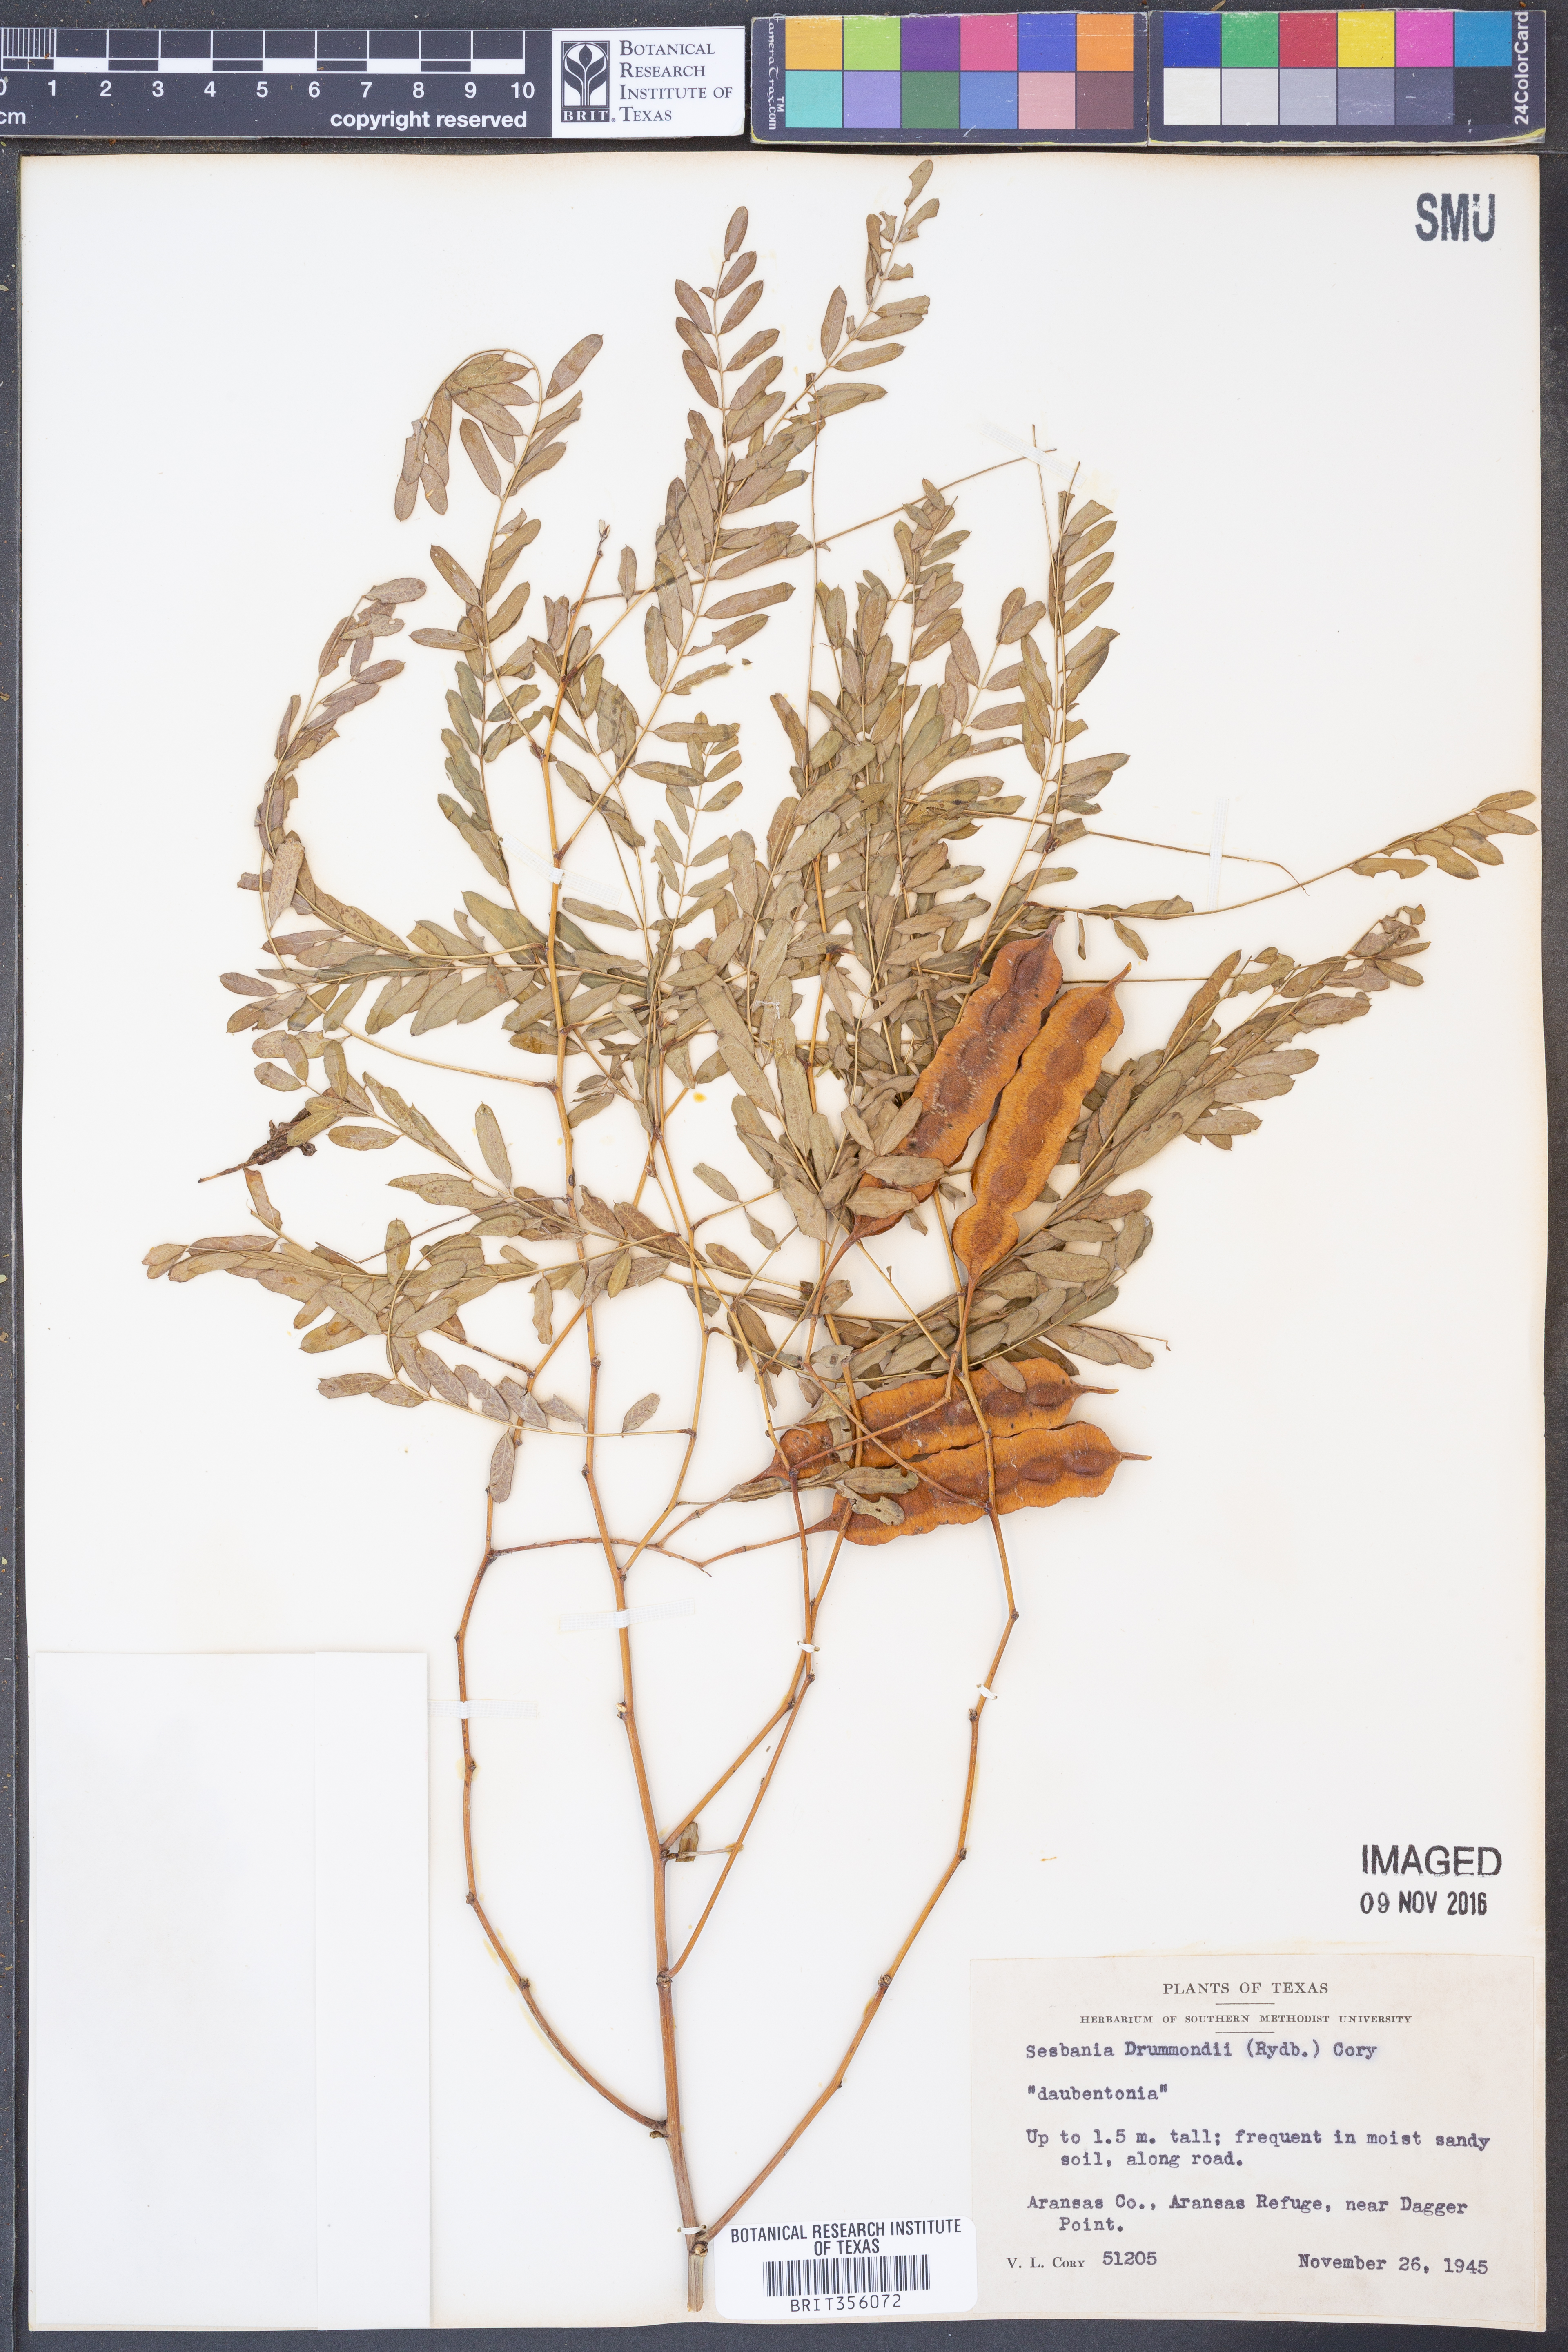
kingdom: Plantae
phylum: Tracheophyta
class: Magnoliopsida
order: Fabales
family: Fabaceae
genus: Sesbania
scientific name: Sesbania drummondii
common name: Poison-bean
